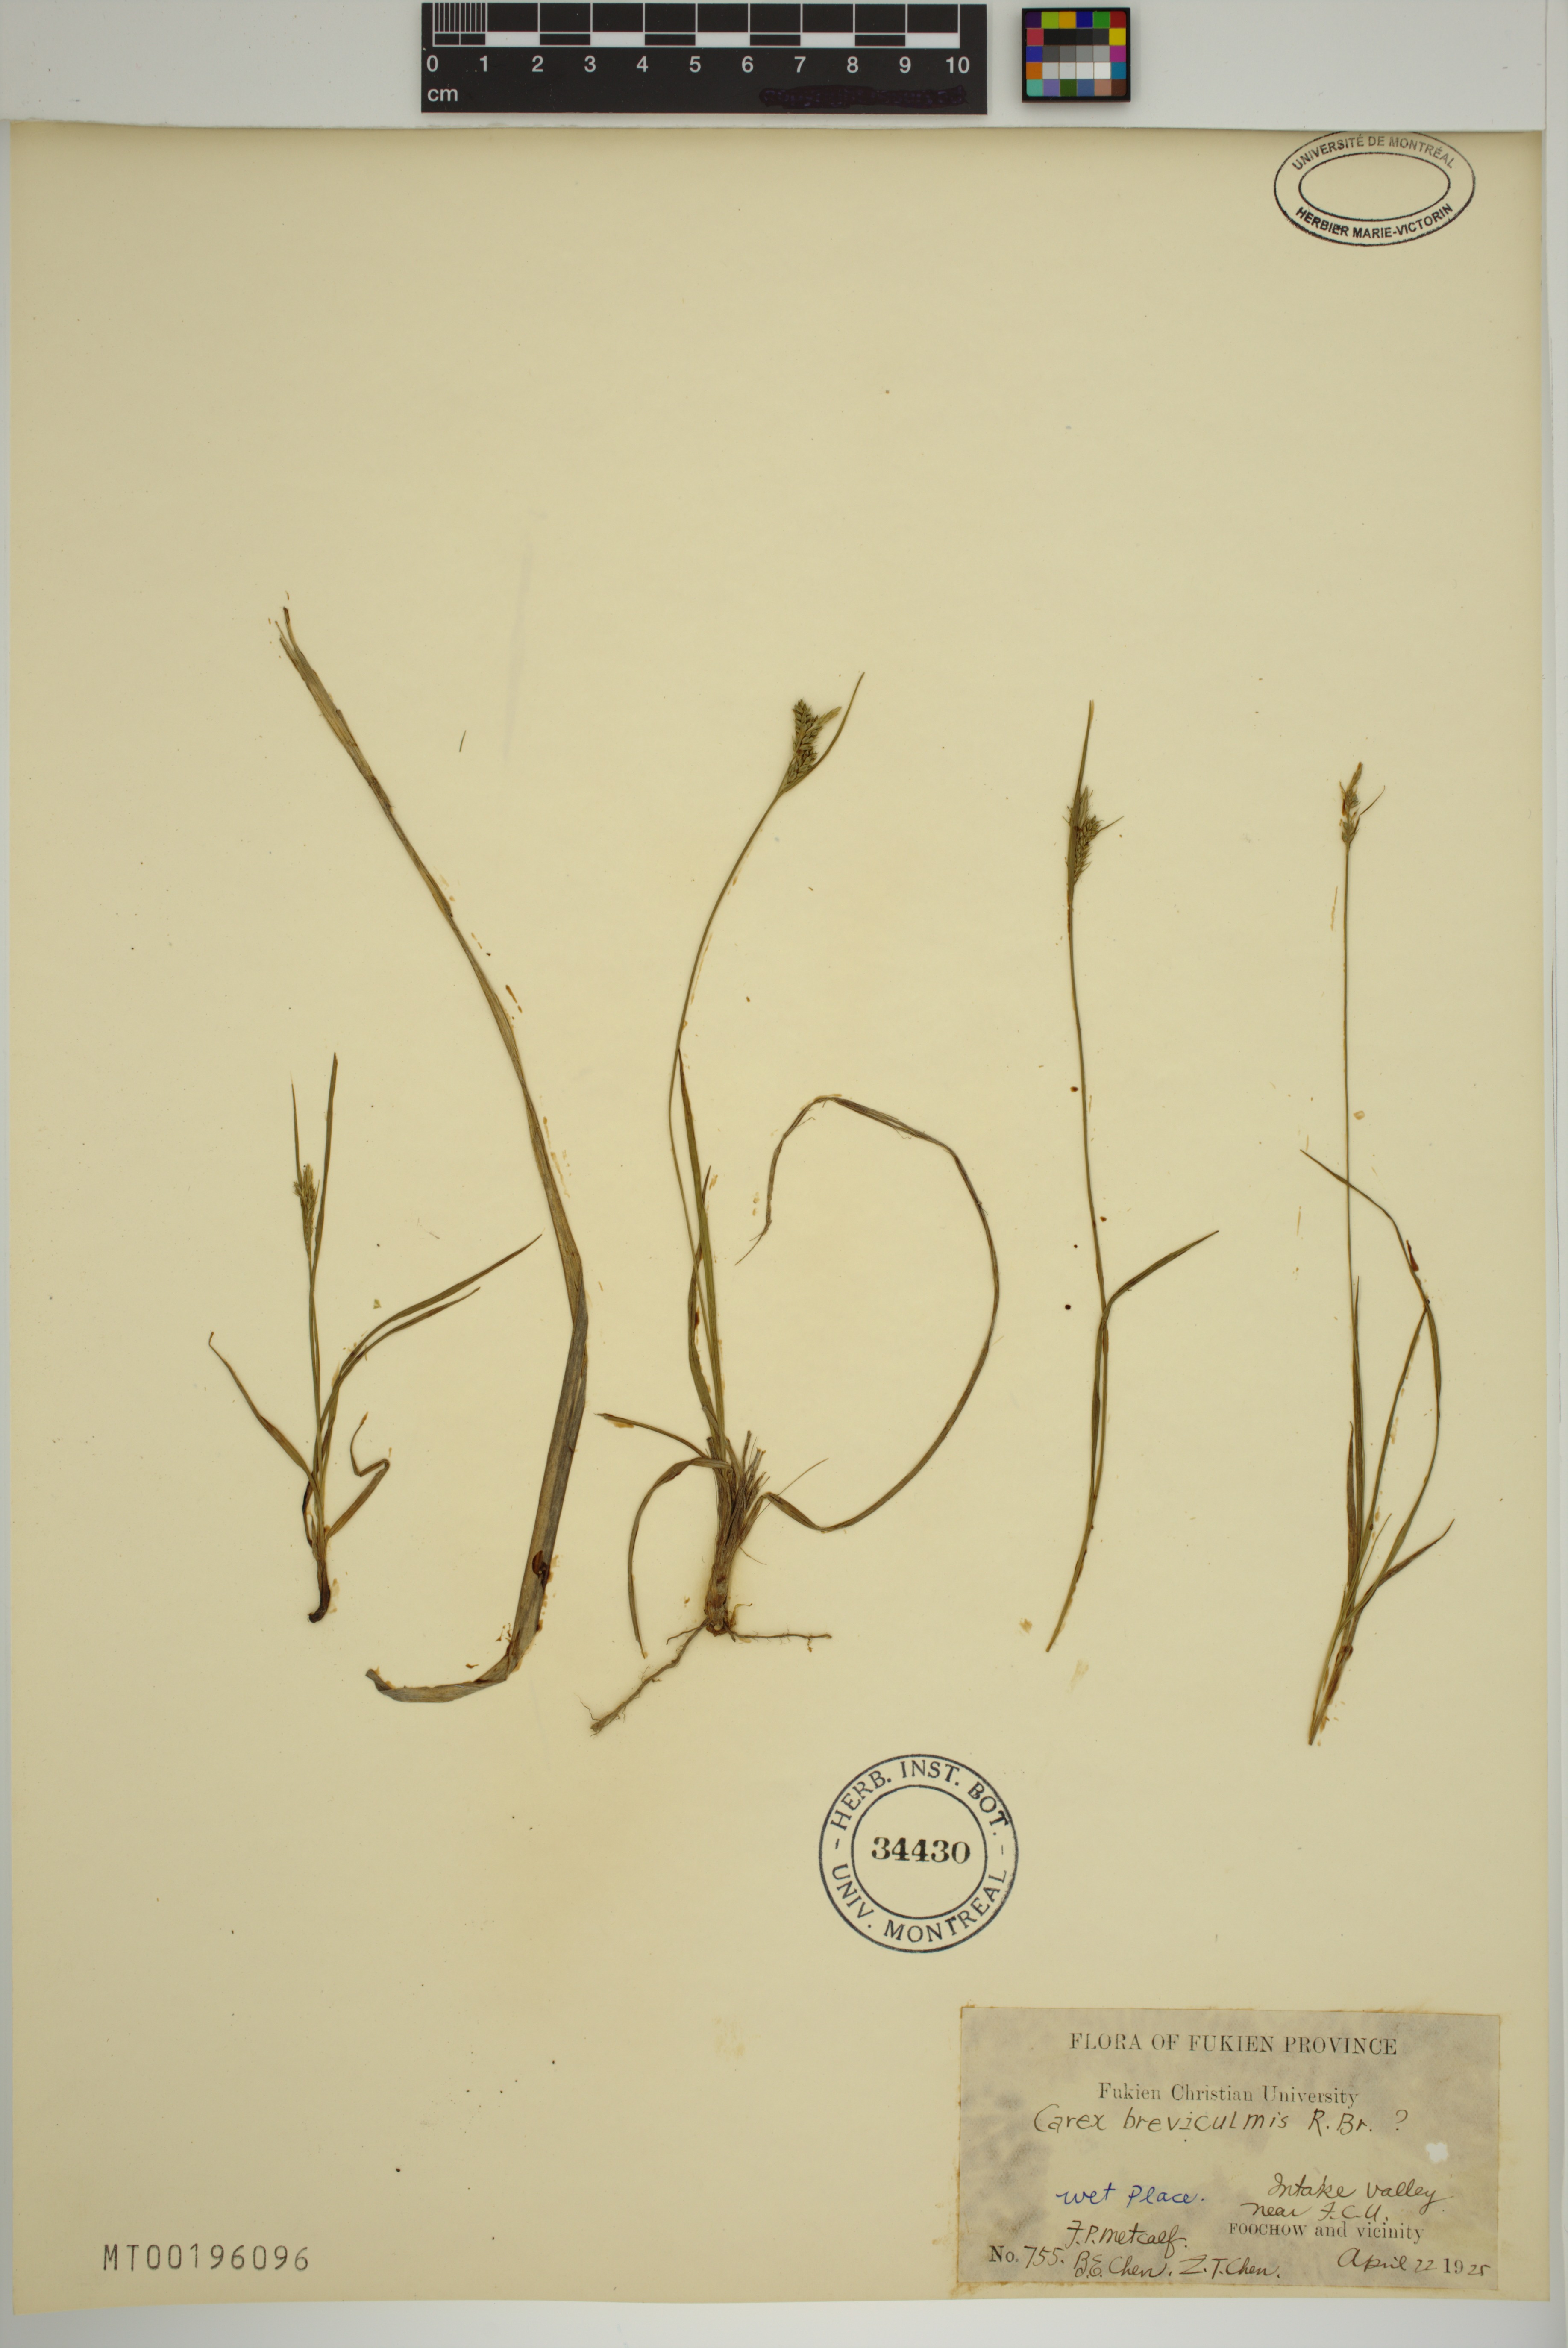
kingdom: Plantae
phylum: Tracheophyta
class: Liliopsida
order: Poales
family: Cyperaceae
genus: Carex
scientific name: Carex breviculmis
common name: Asian shortstem sedge
